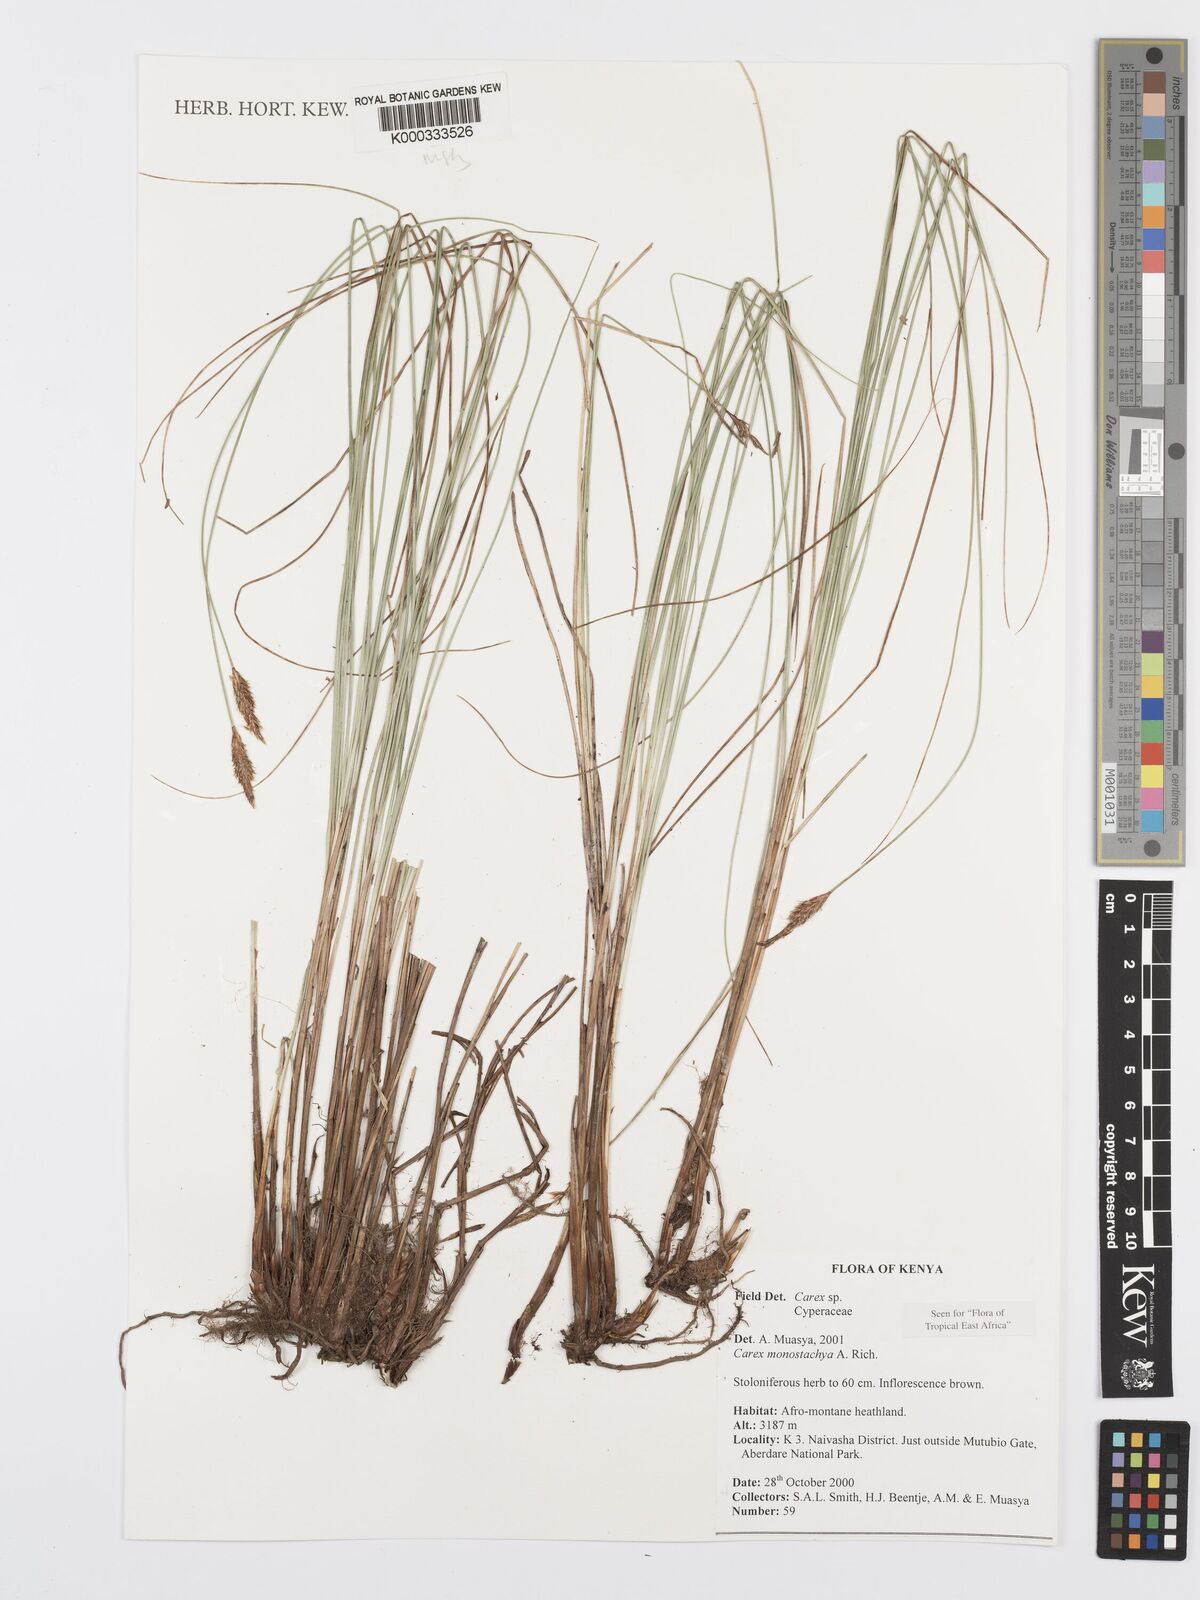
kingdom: Plantae
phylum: Tracheophyta
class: Liliopsida
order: Poales
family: Cyperaceae
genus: Carex
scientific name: Carex monostachya
